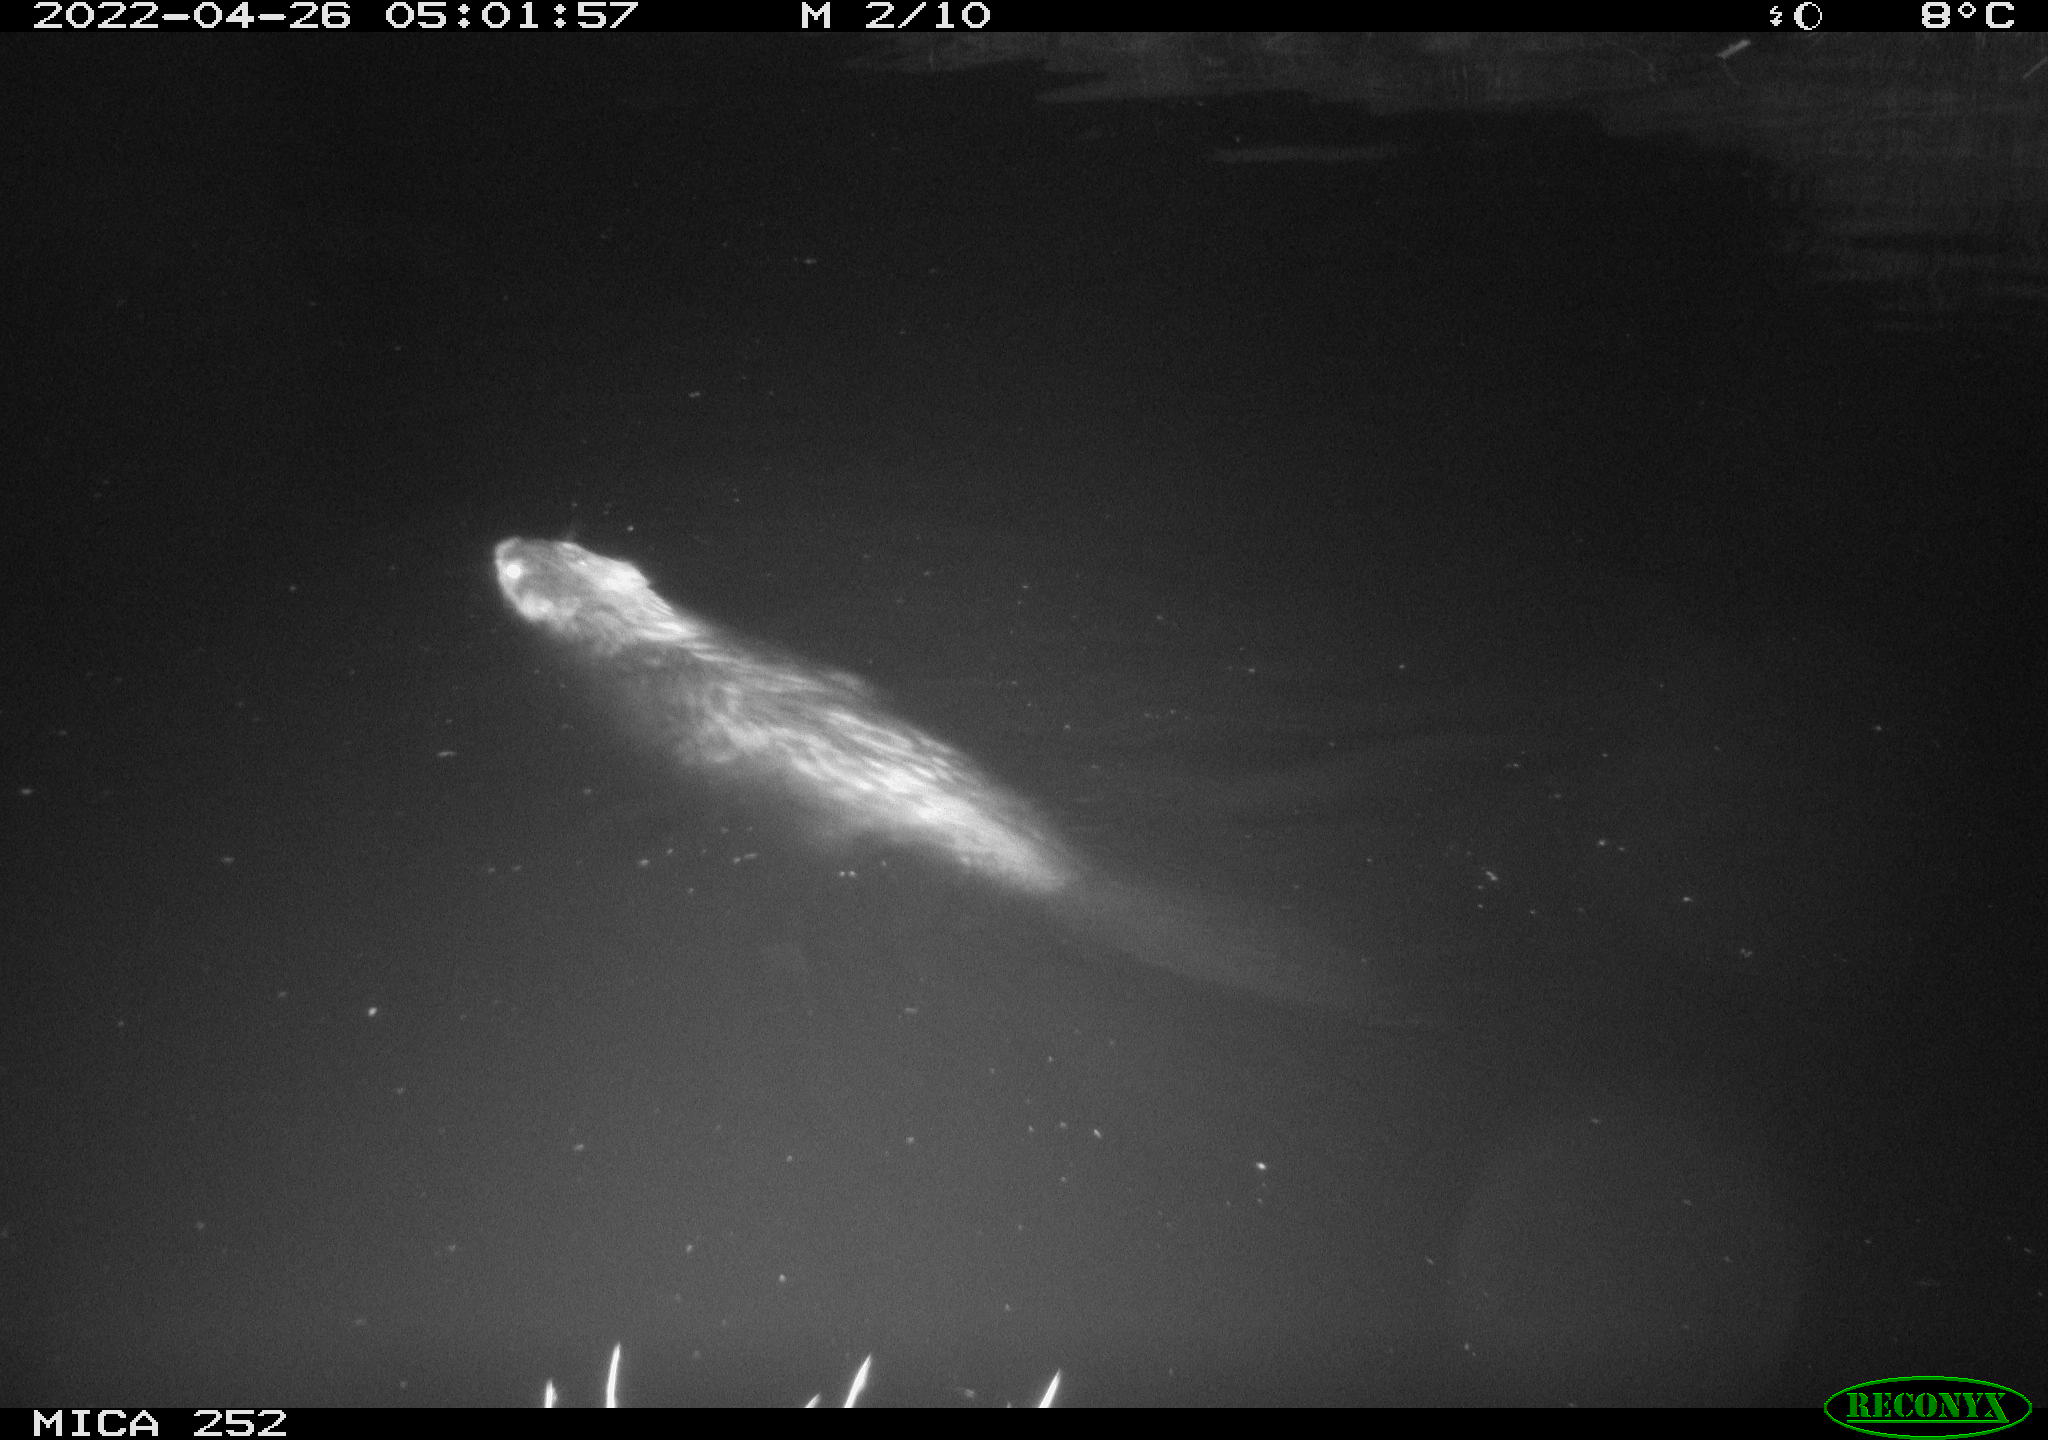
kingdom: Animalia
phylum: Chordata
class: Mammalia
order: Rodentia
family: Castoridae
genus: Castor
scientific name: Castor fiber
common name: Eurasian beaver
